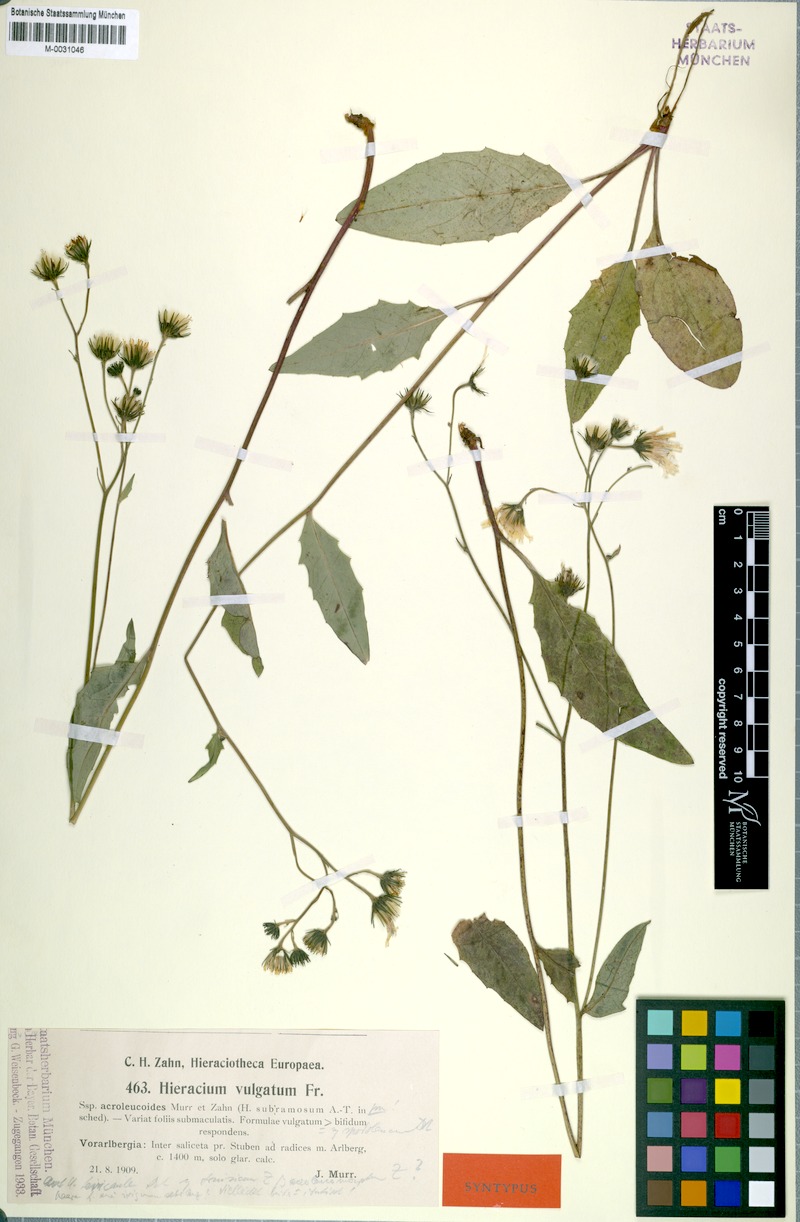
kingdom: Plantae
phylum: Tracheophyta
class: Magnoliopsida
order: Asterales
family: Asteraceae
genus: Hieracium
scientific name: Hieracium levicaule
